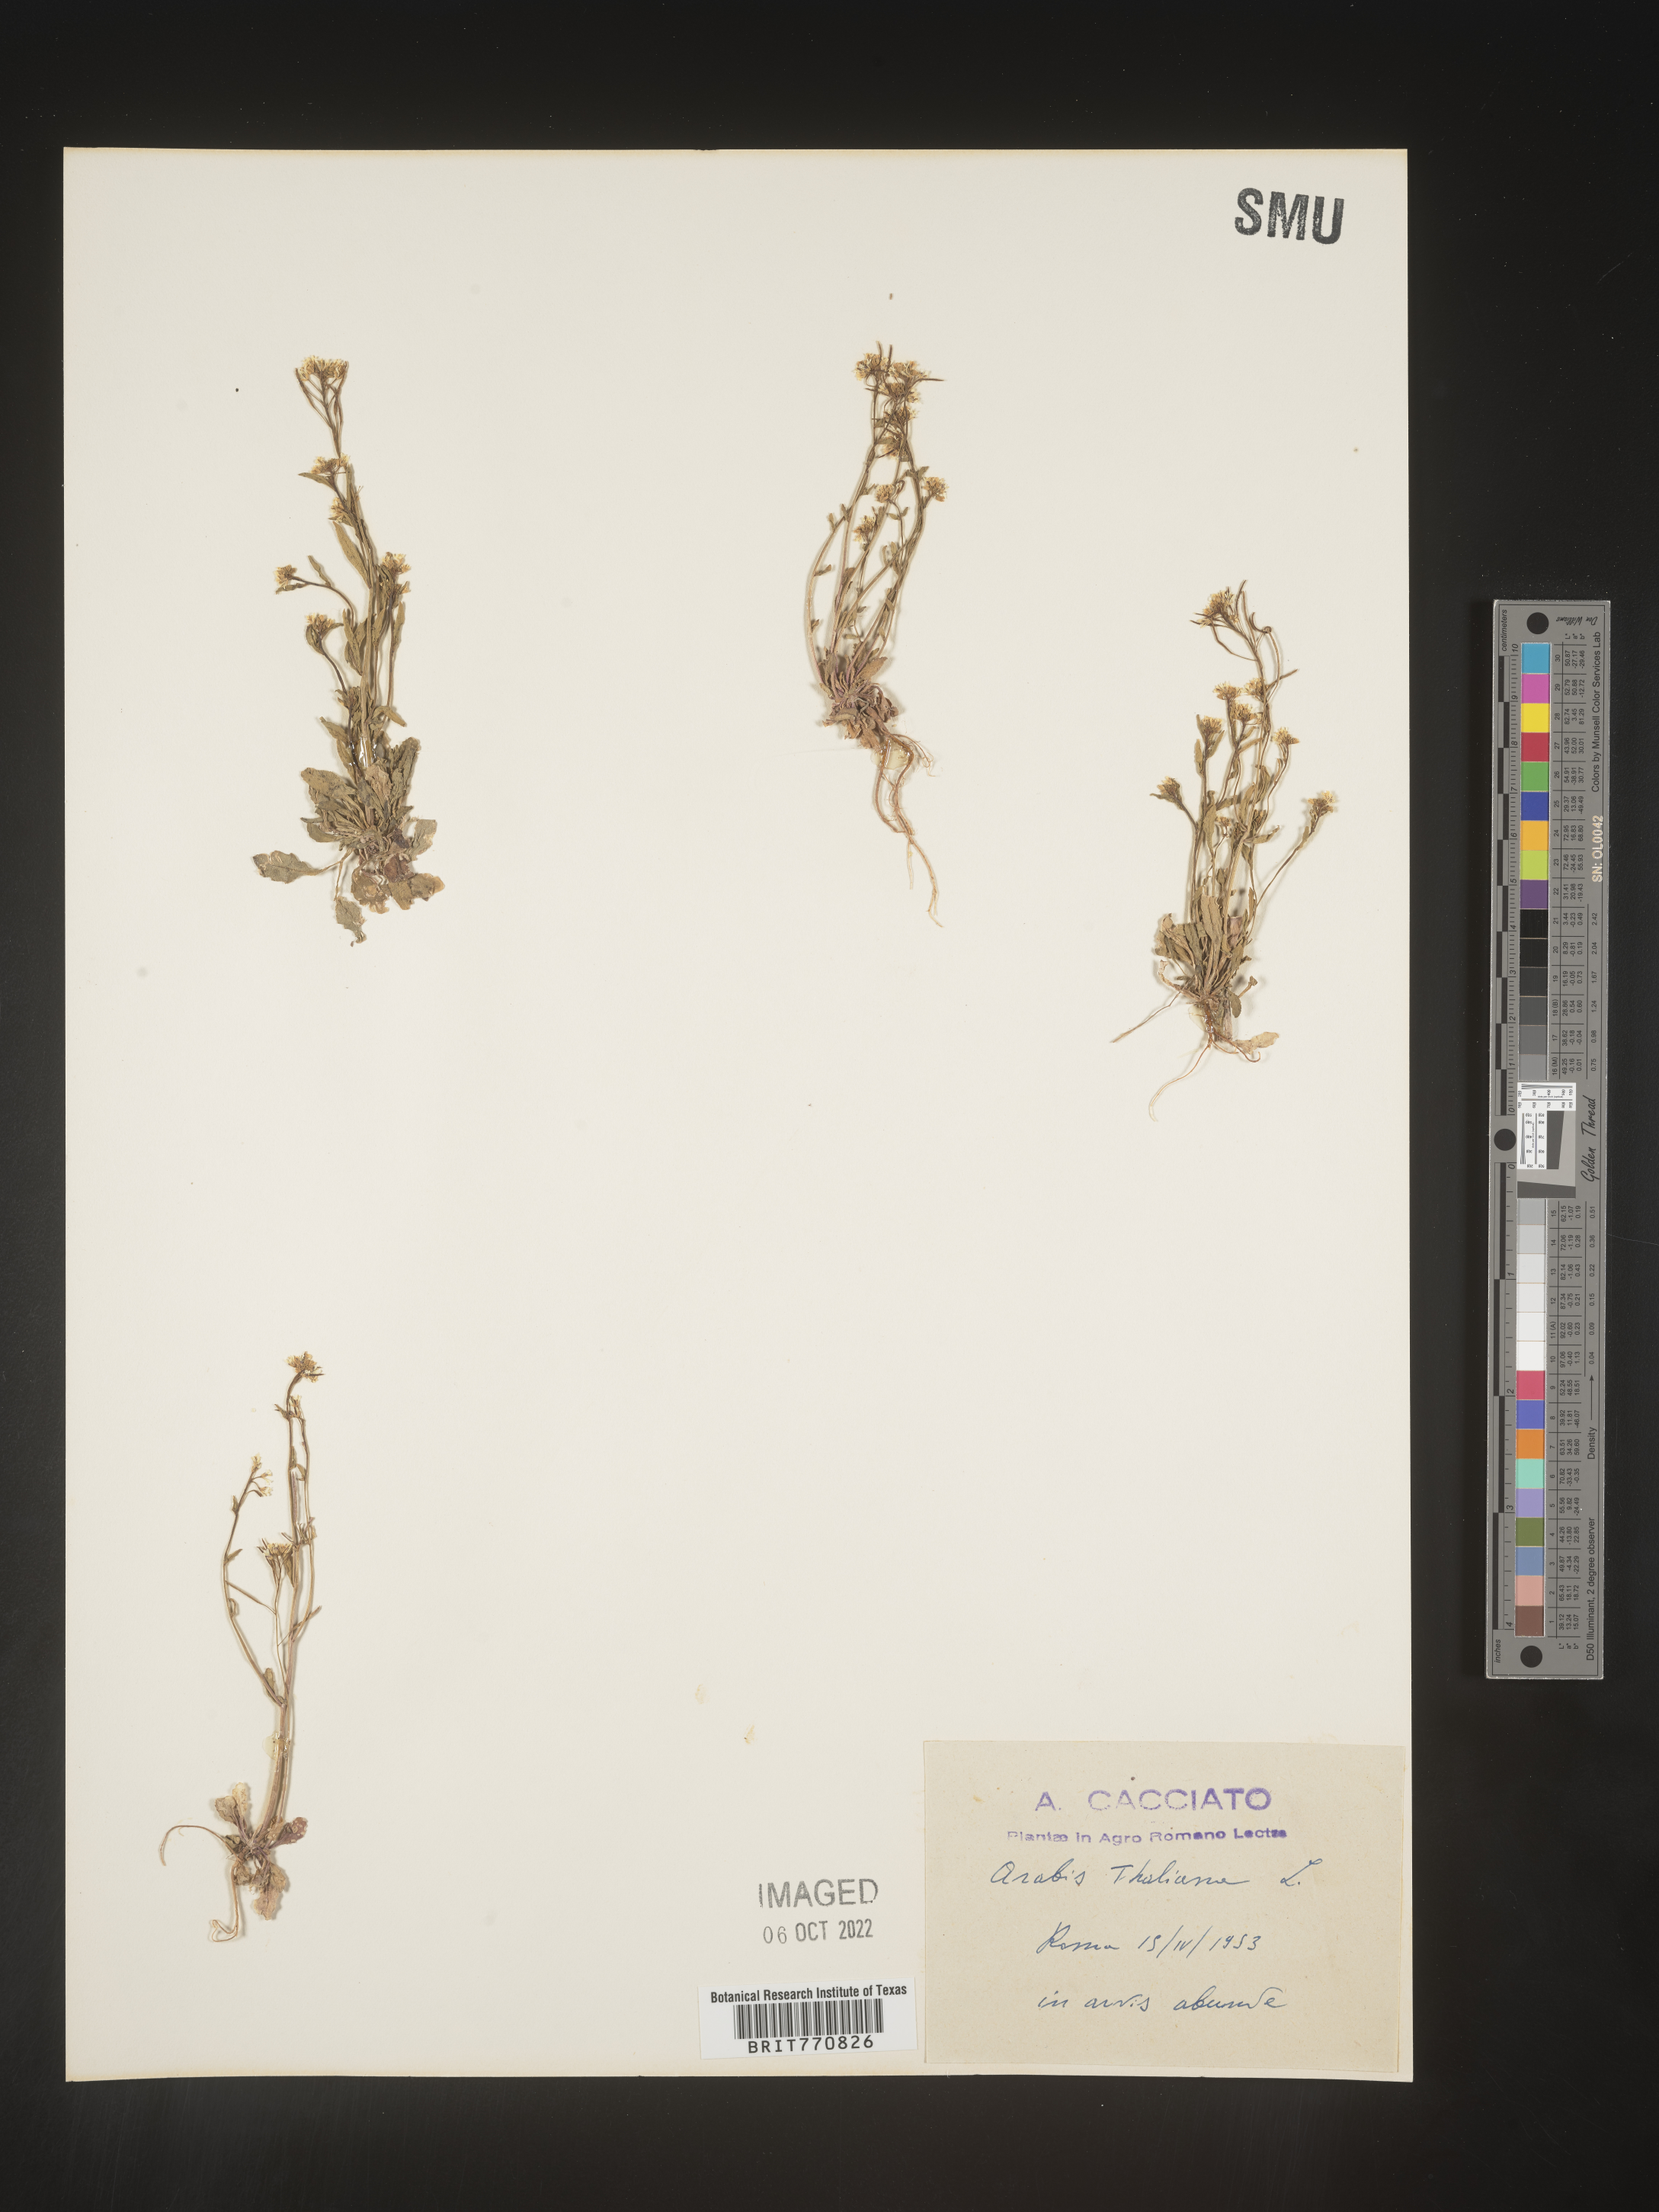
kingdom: Plantae
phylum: Tracheophyta
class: Magnoliopsida
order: Brassicales
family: Brassicaceae
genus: Arabidopsis
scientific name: Arabidopsis
